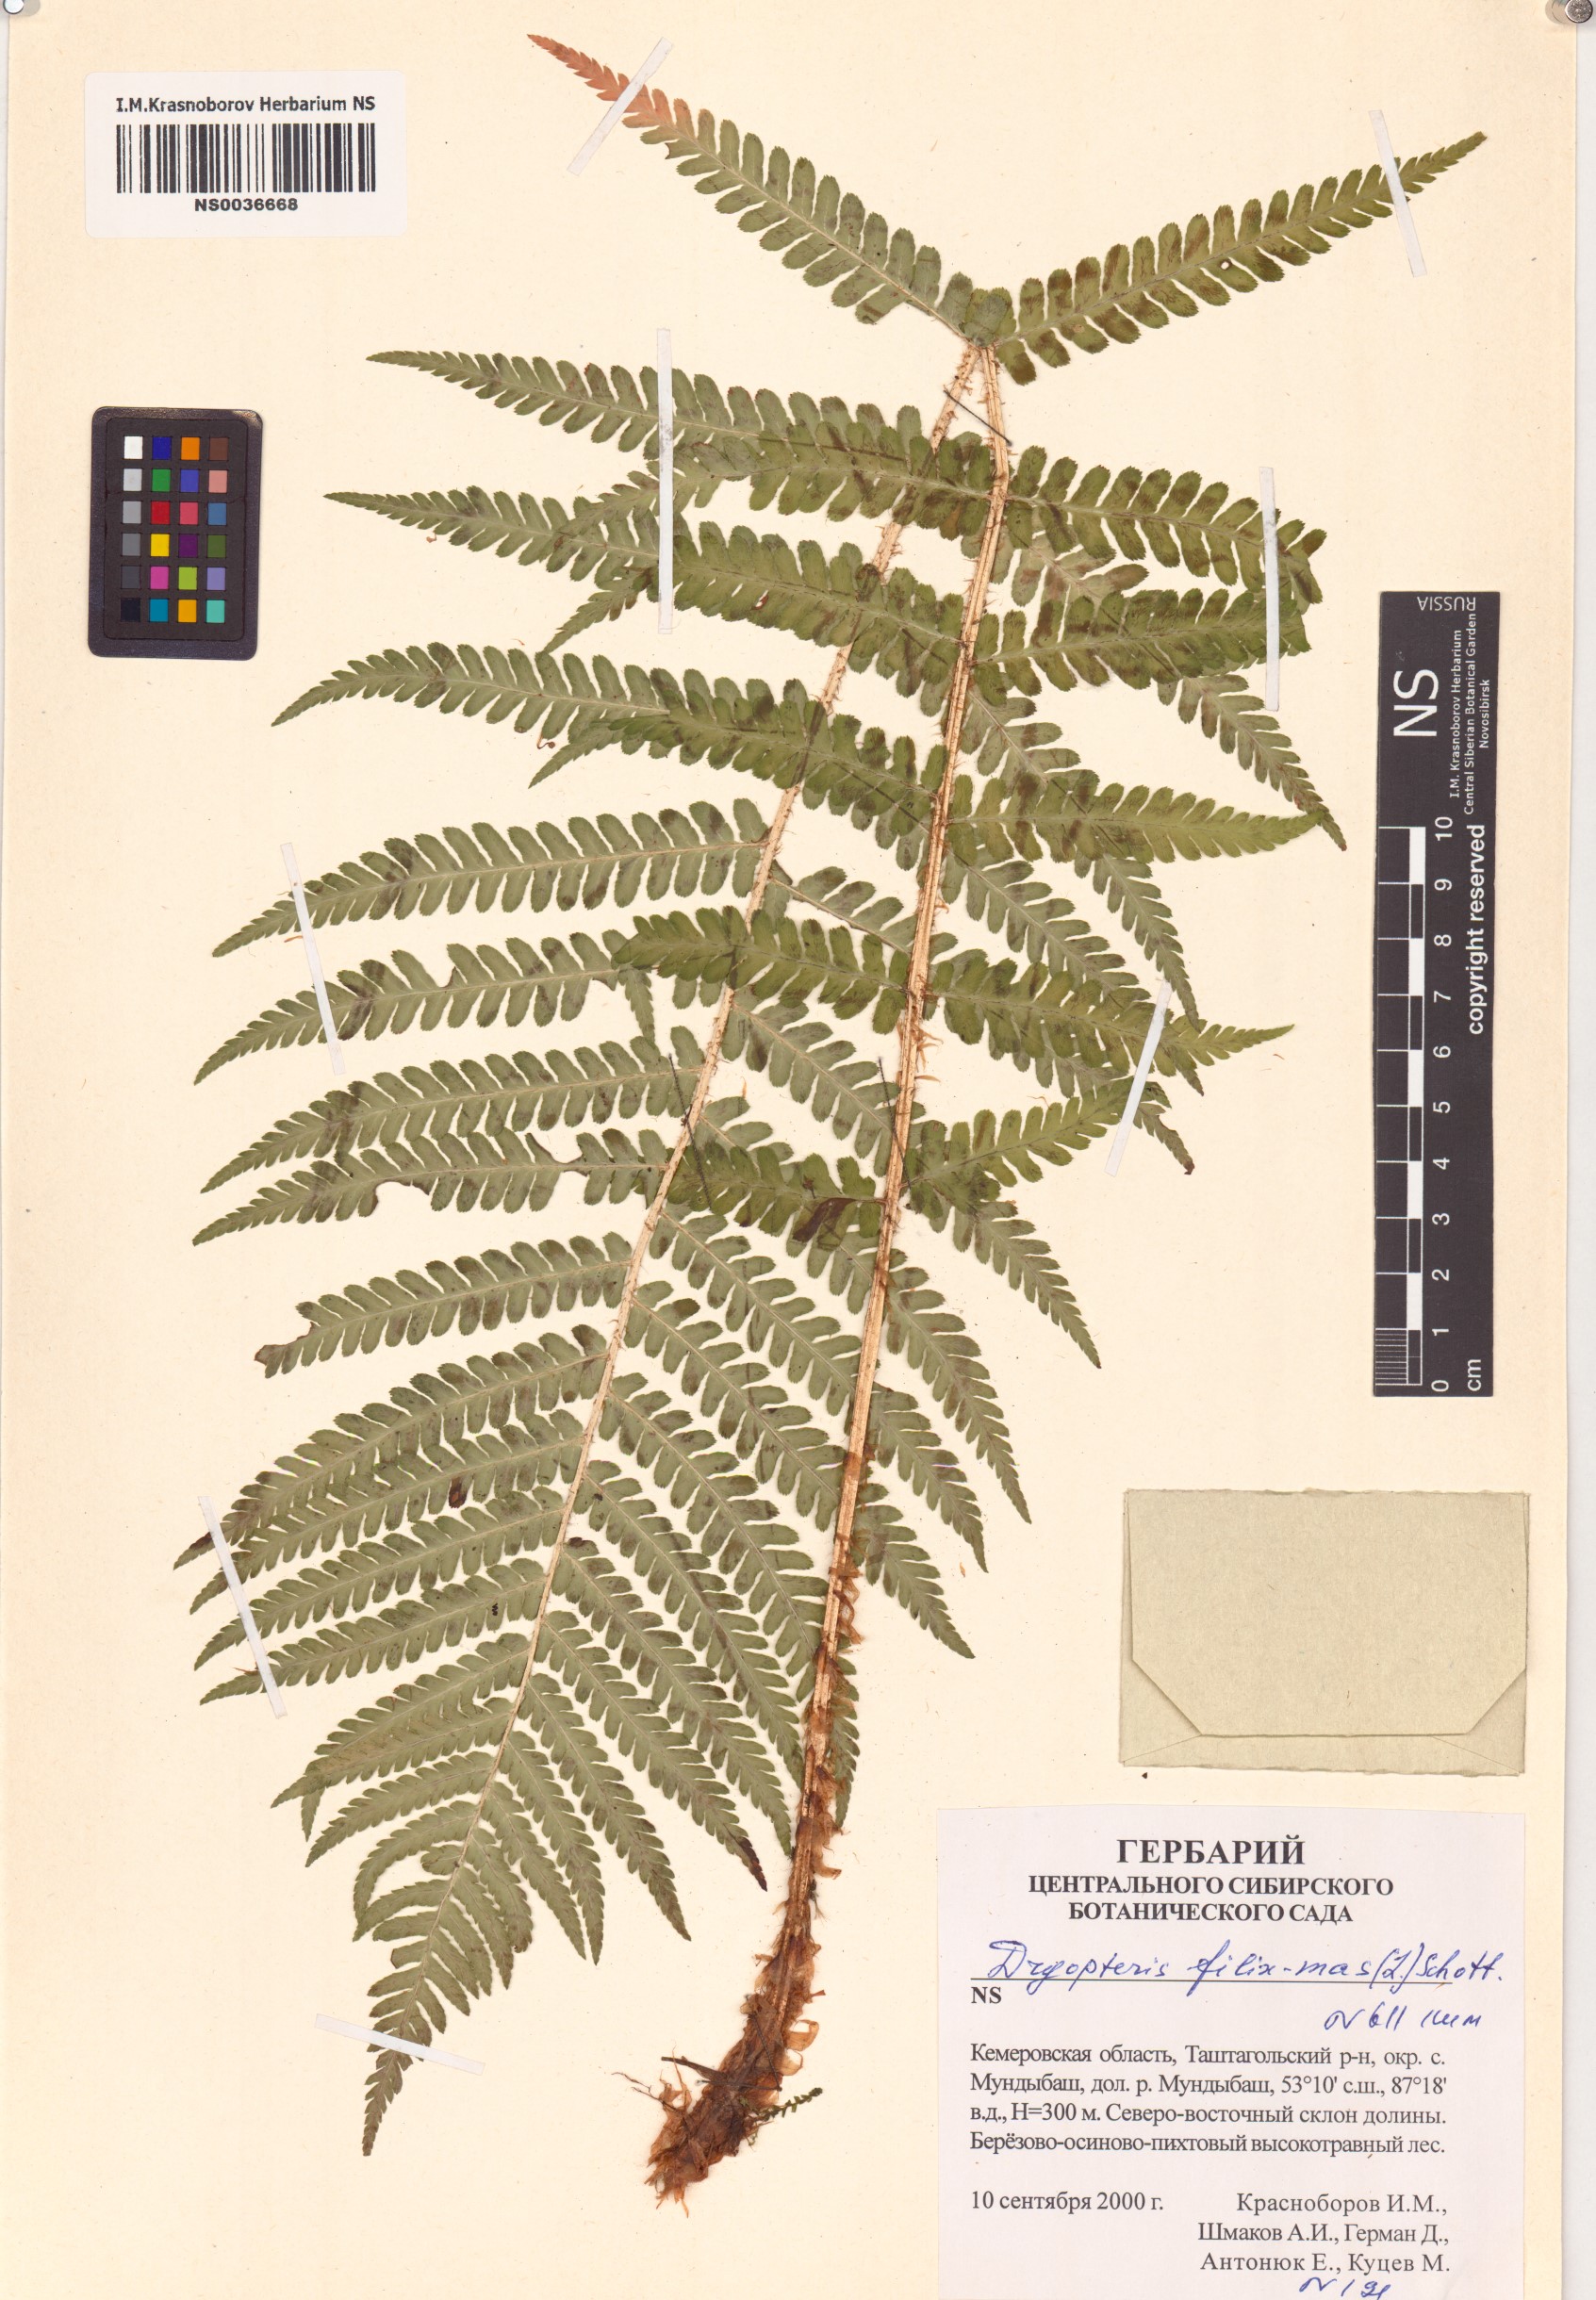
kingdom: Plantae
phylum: Tracheophyta
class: Polypodiopsida
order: Polypodiales
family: Dryopteridaceae
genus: Dryopteris
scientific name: Dryopteris filix-mas
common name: Male fern
